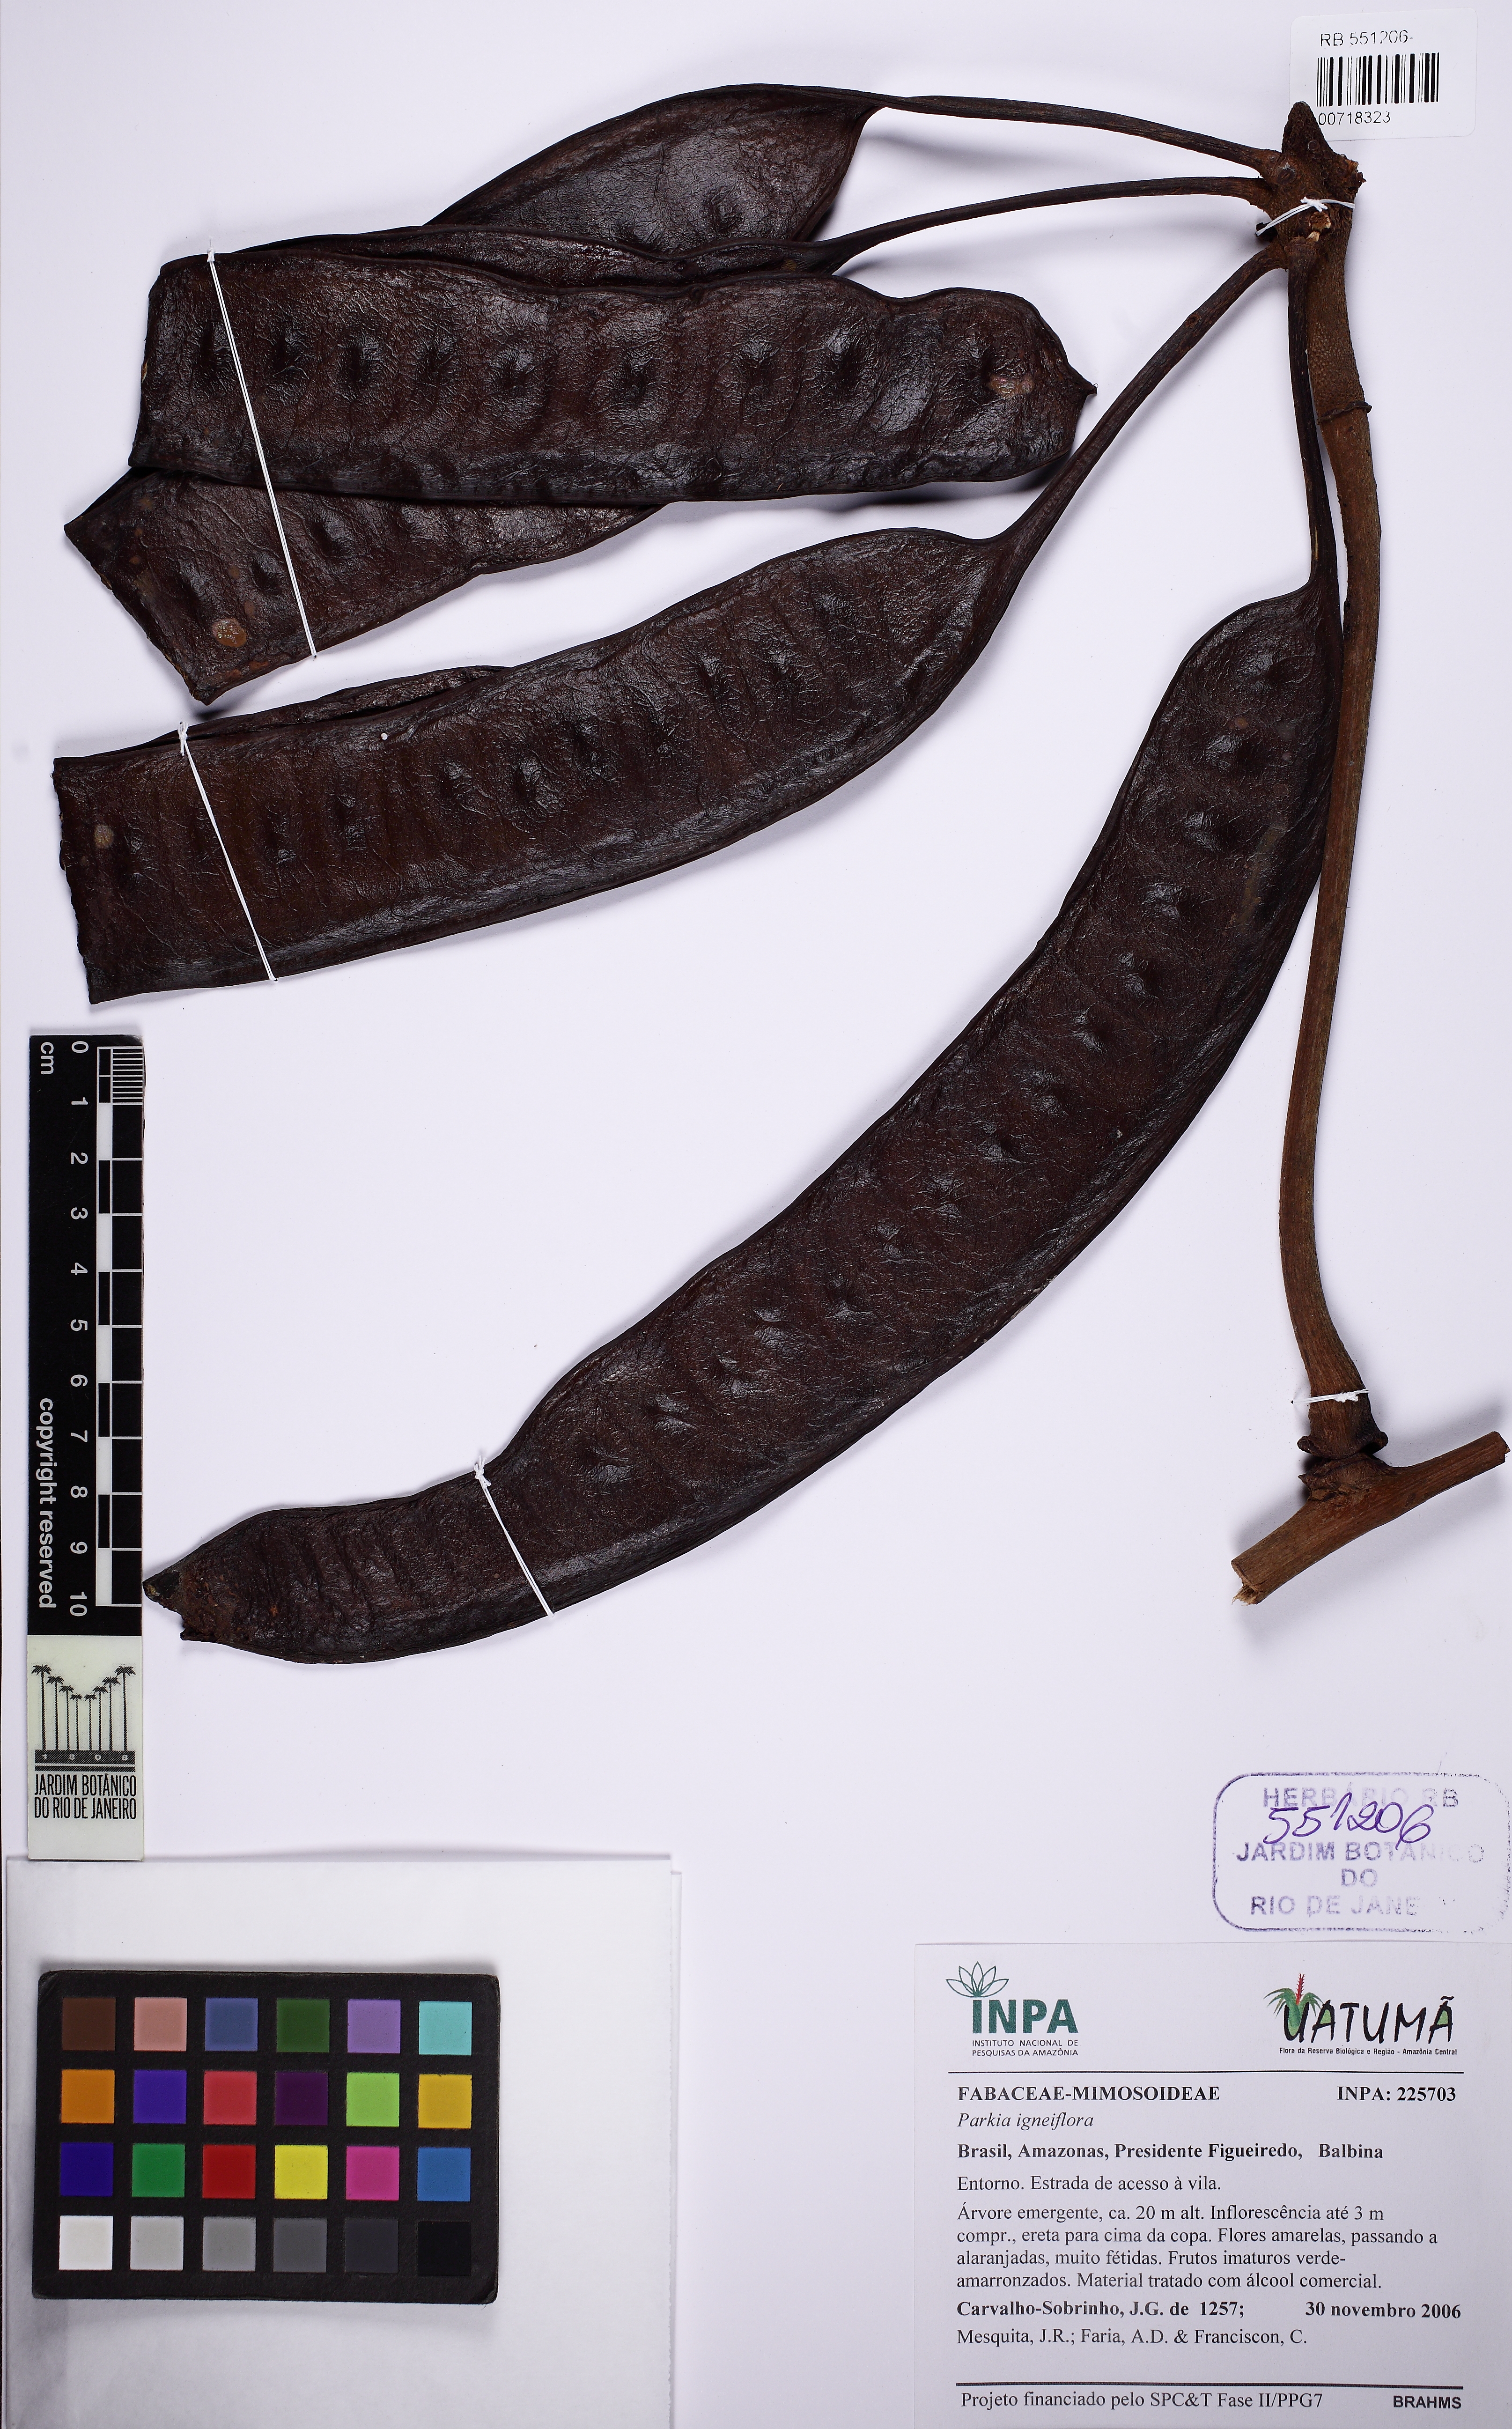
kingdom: Plantae
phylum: Tracheophyta
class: Magnoliopsida
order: Fabales
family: Fabaceae
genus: Parkia
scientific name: Parkia igneiflora
